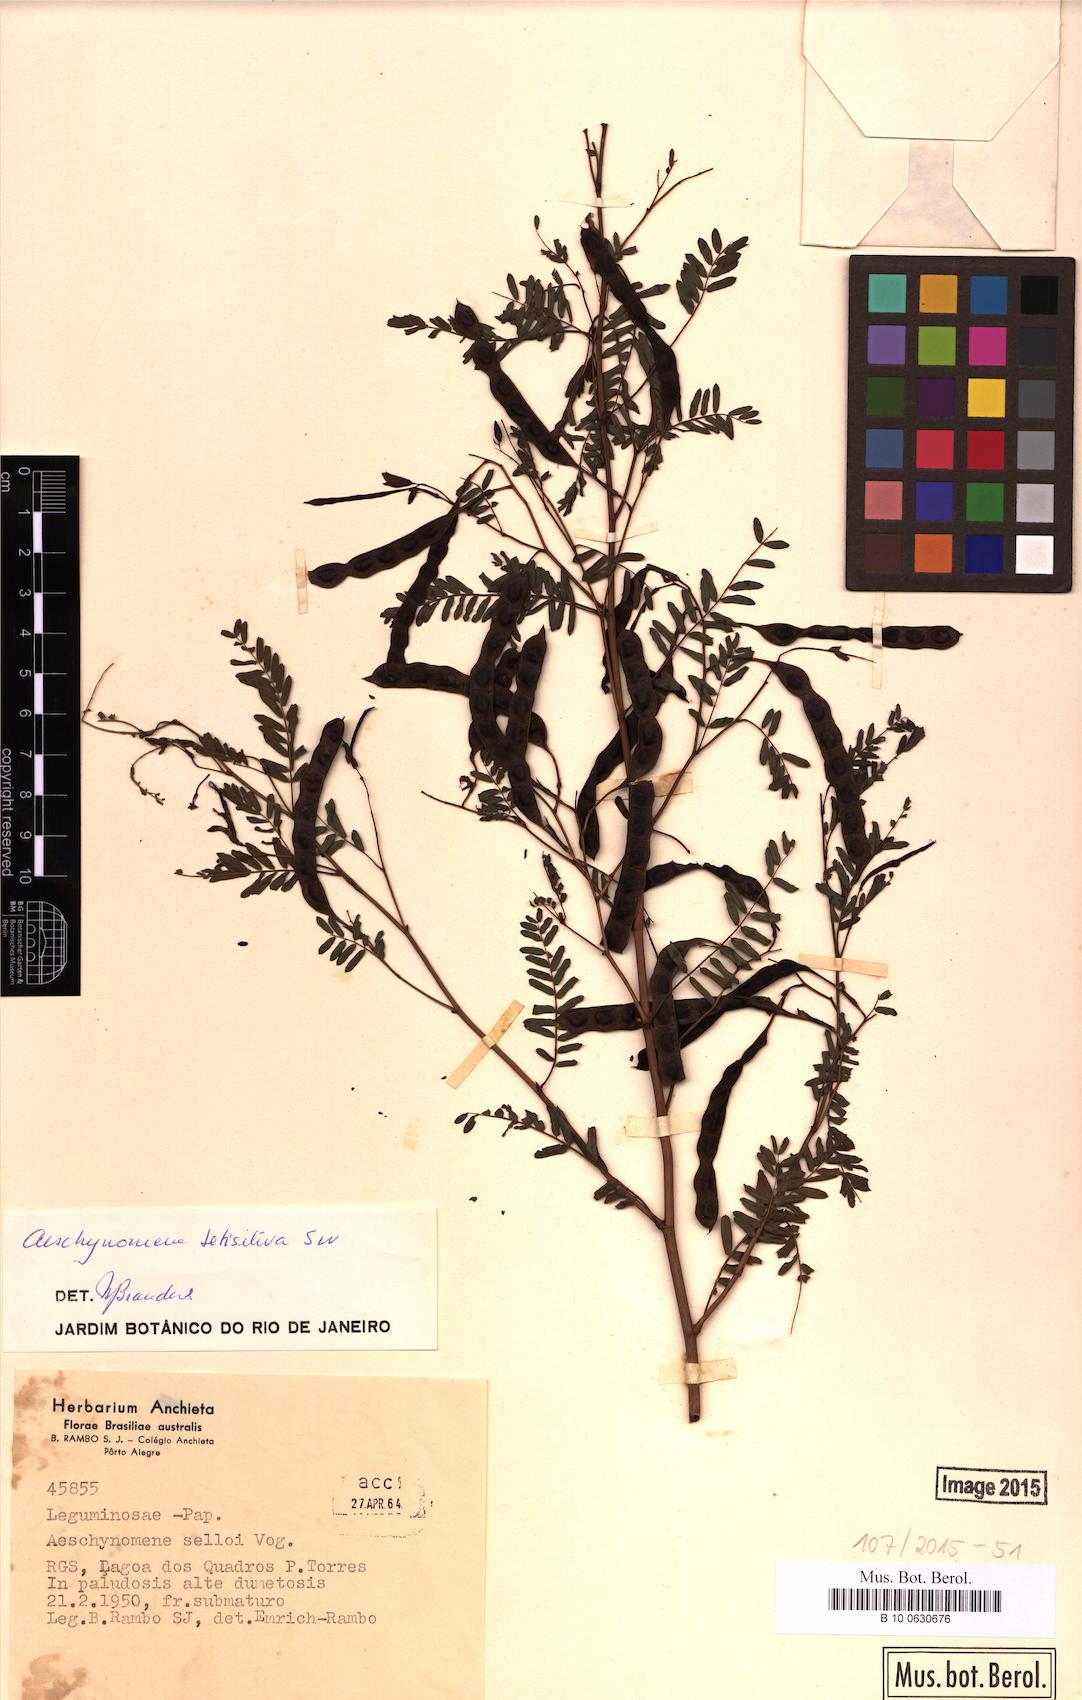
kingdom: Plantae
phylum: Tracheophyta
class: Magnoliopsida
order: Fabales
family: Fabaceae
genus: Aeschynomene
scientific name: Aeschynomene sensitiva
